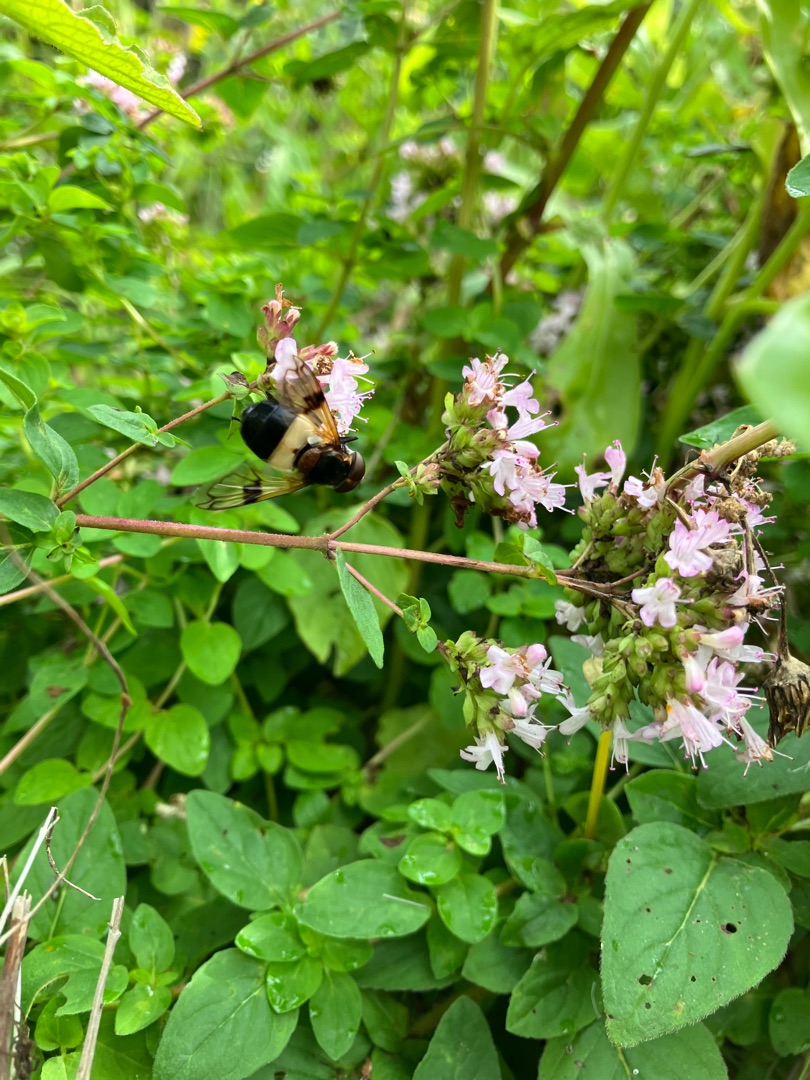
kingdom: Animalia
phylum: Arthropoda
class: Insecta
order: Diptera
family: Syrphidae
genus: Volucella
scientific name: Volucella pellucens
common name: Hvidbåndet humlesvirreflue
